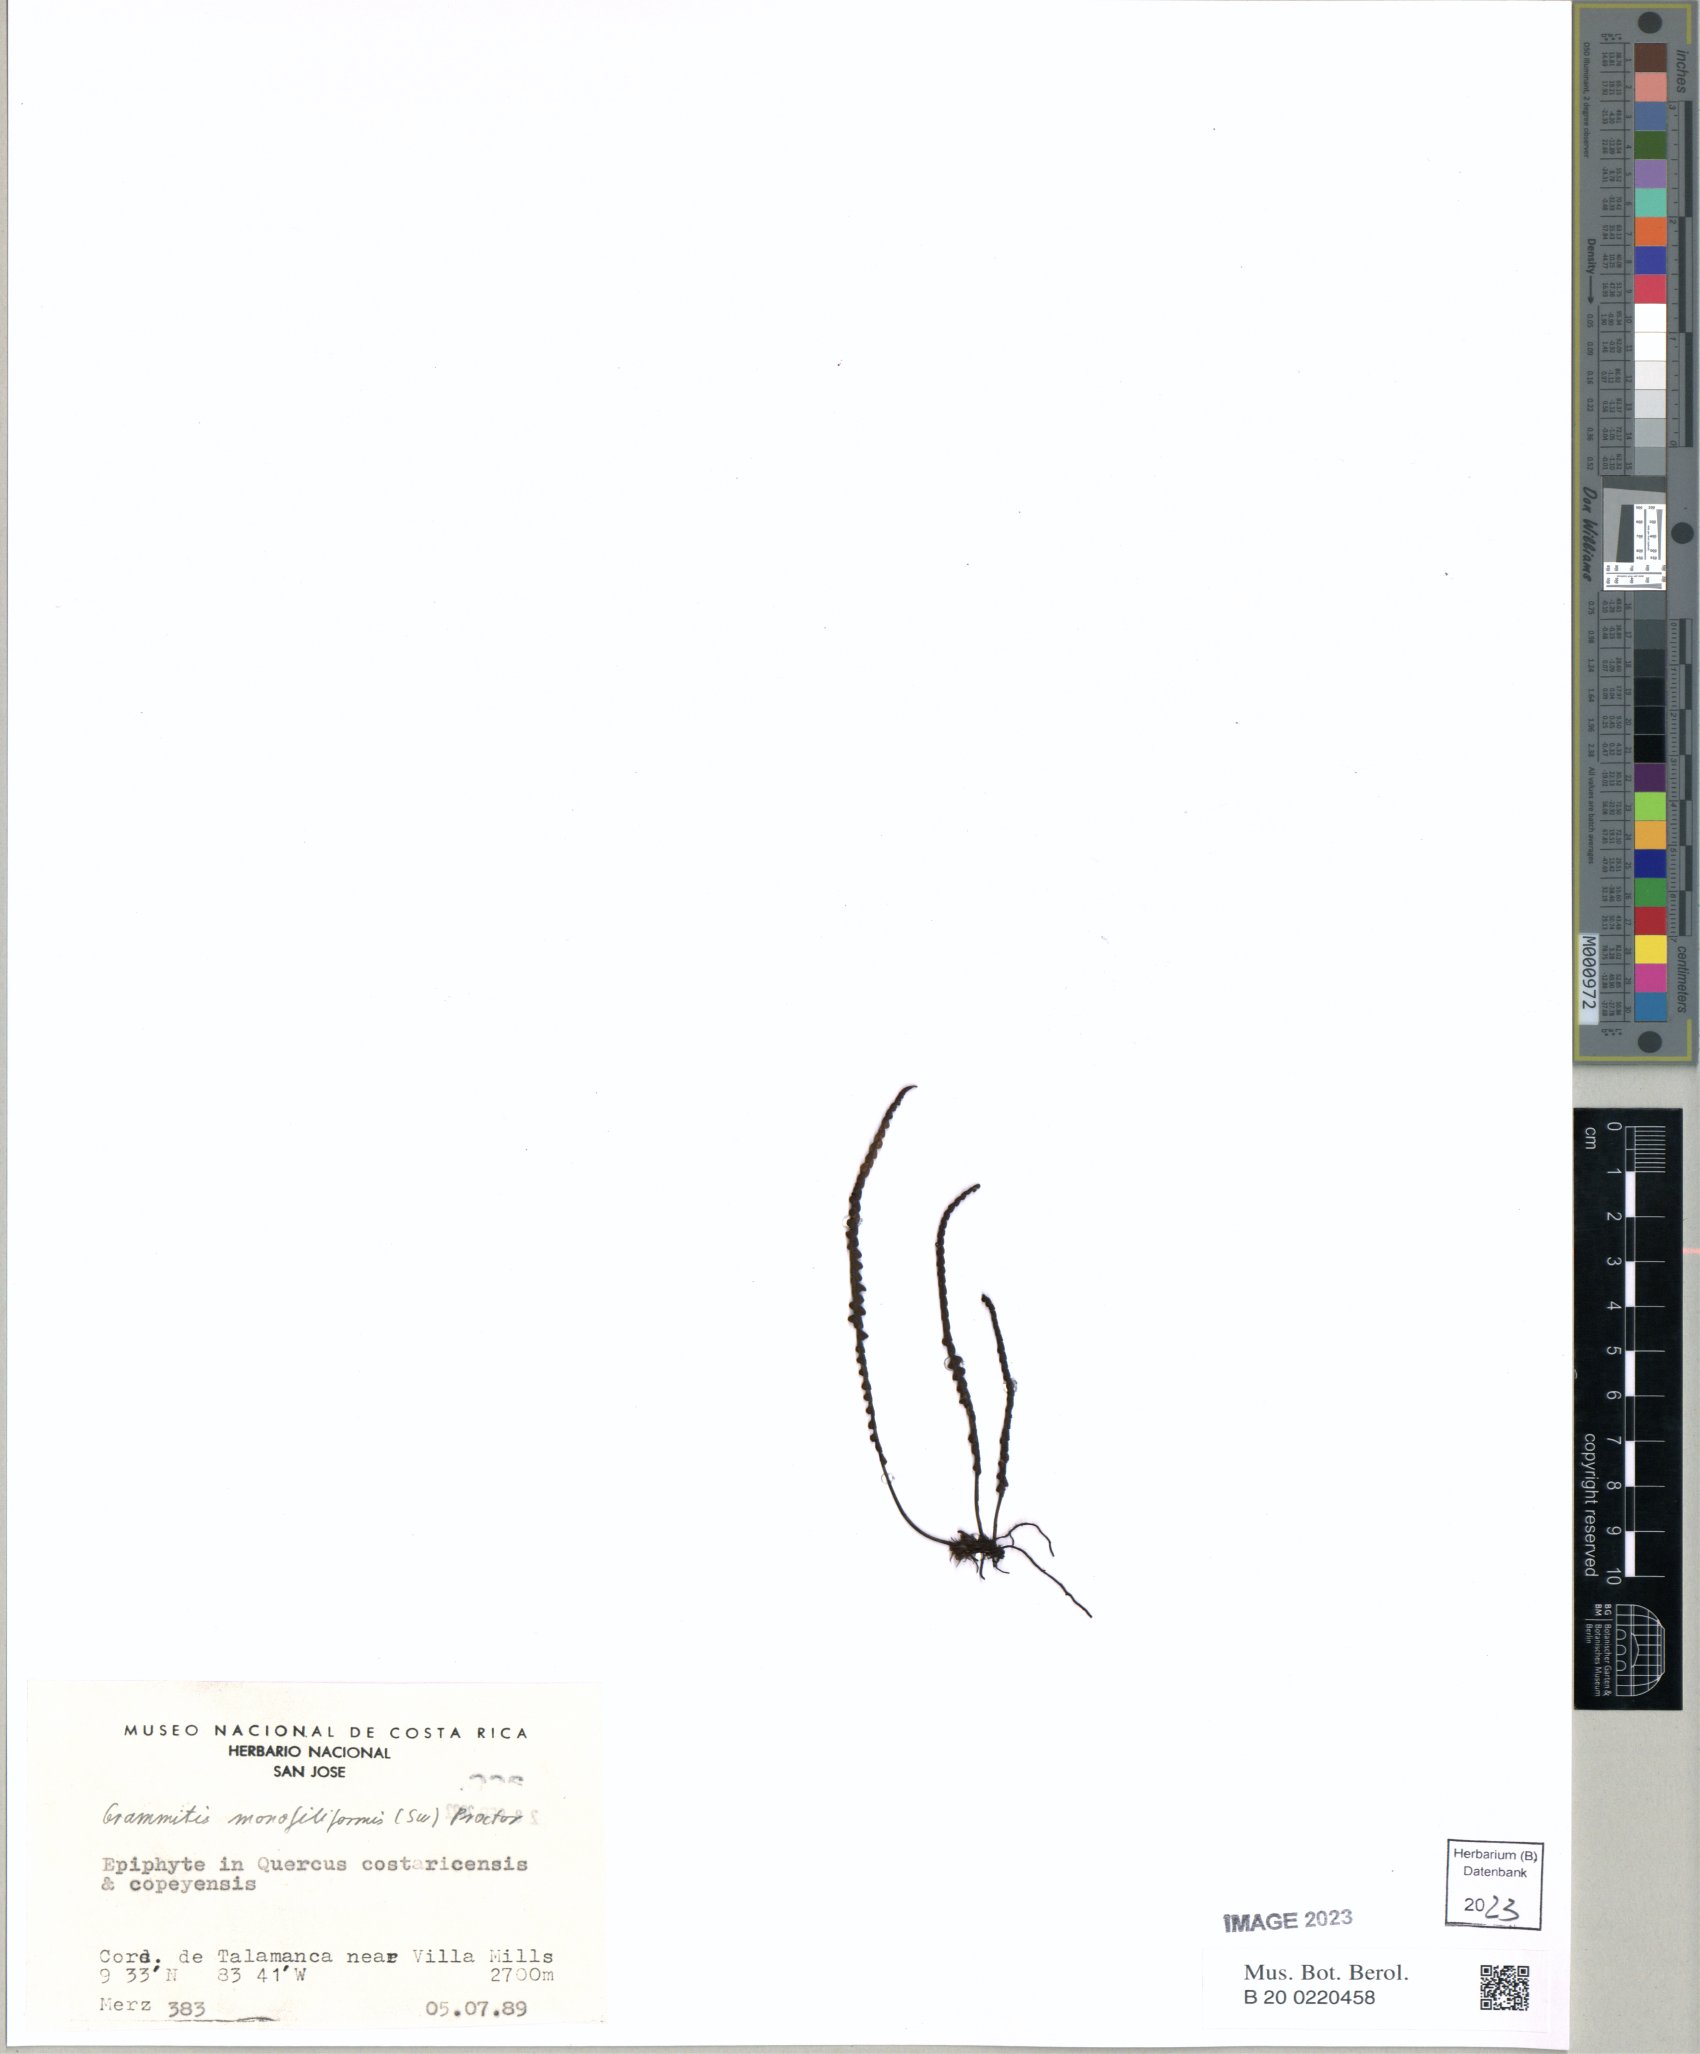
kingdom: Plantae
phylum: Tracheophyta
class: Polypodiopsida
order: Polypodiales
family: Polypodiaceae
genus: Melpomene
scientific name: Melpomene moniliformis
